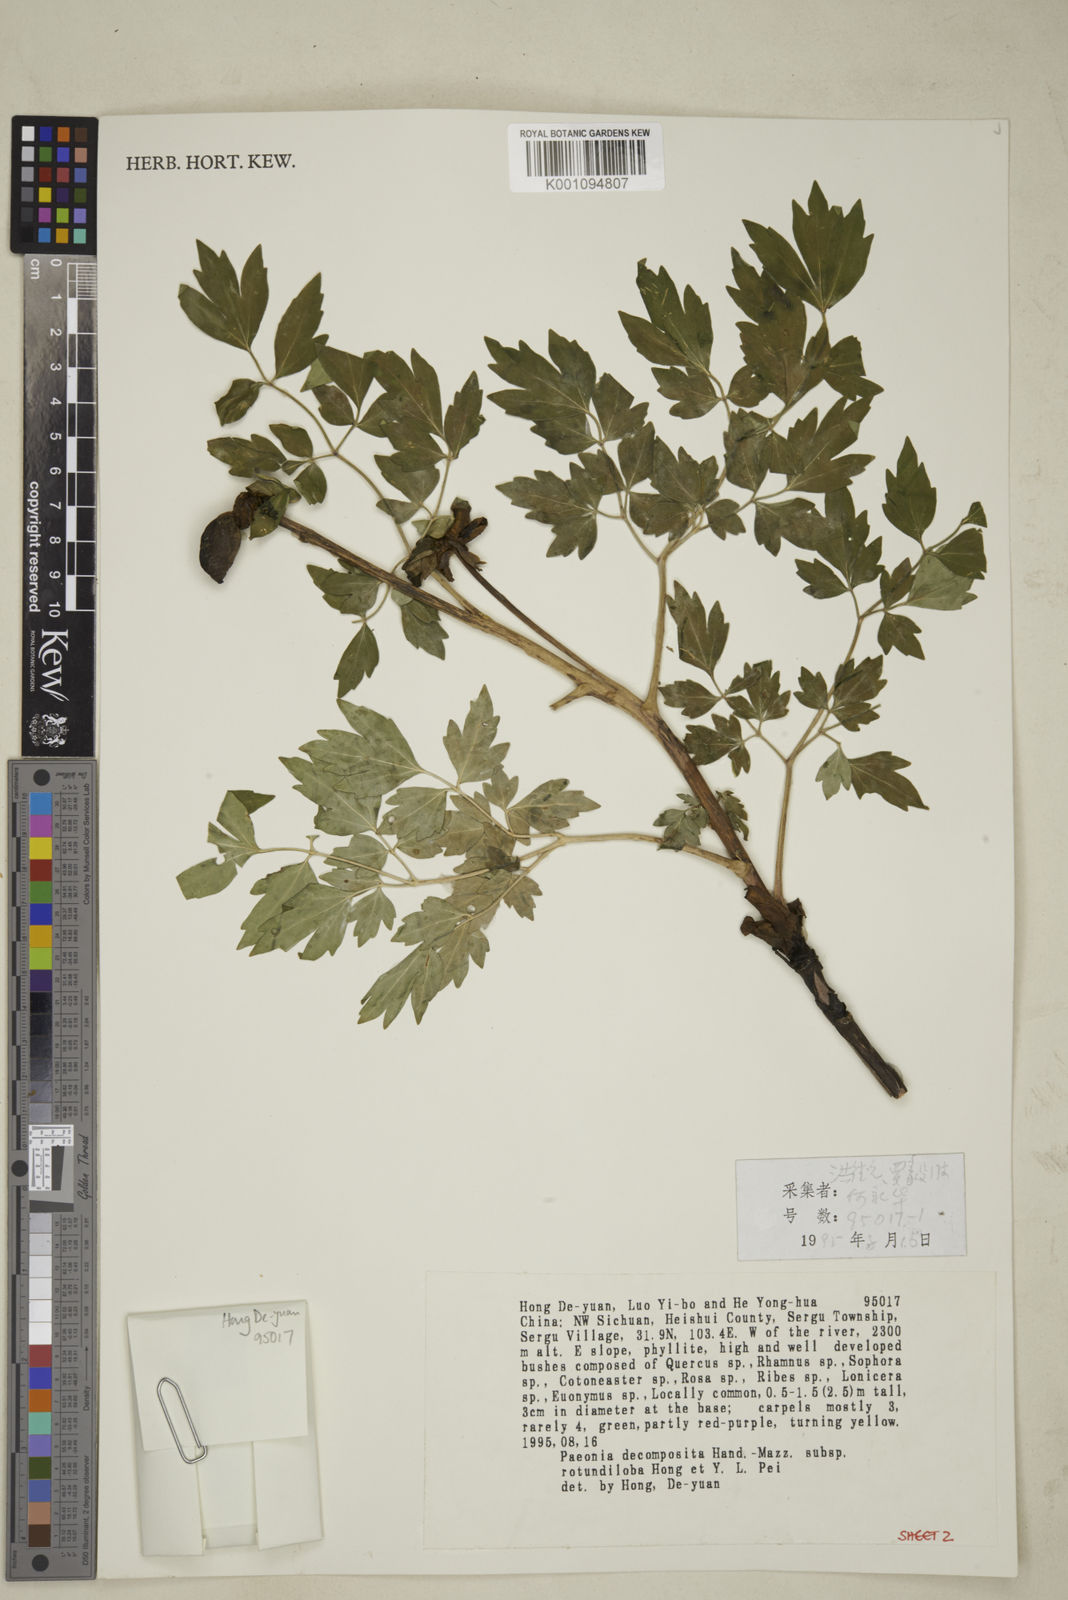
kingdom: Plantae
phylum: Tracheophyta
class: Magnoliopsida
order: Saxifragales
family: Paeoniaceae
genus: Paeonia
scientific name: Paeonia suffruticosa
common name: Moutan peony
